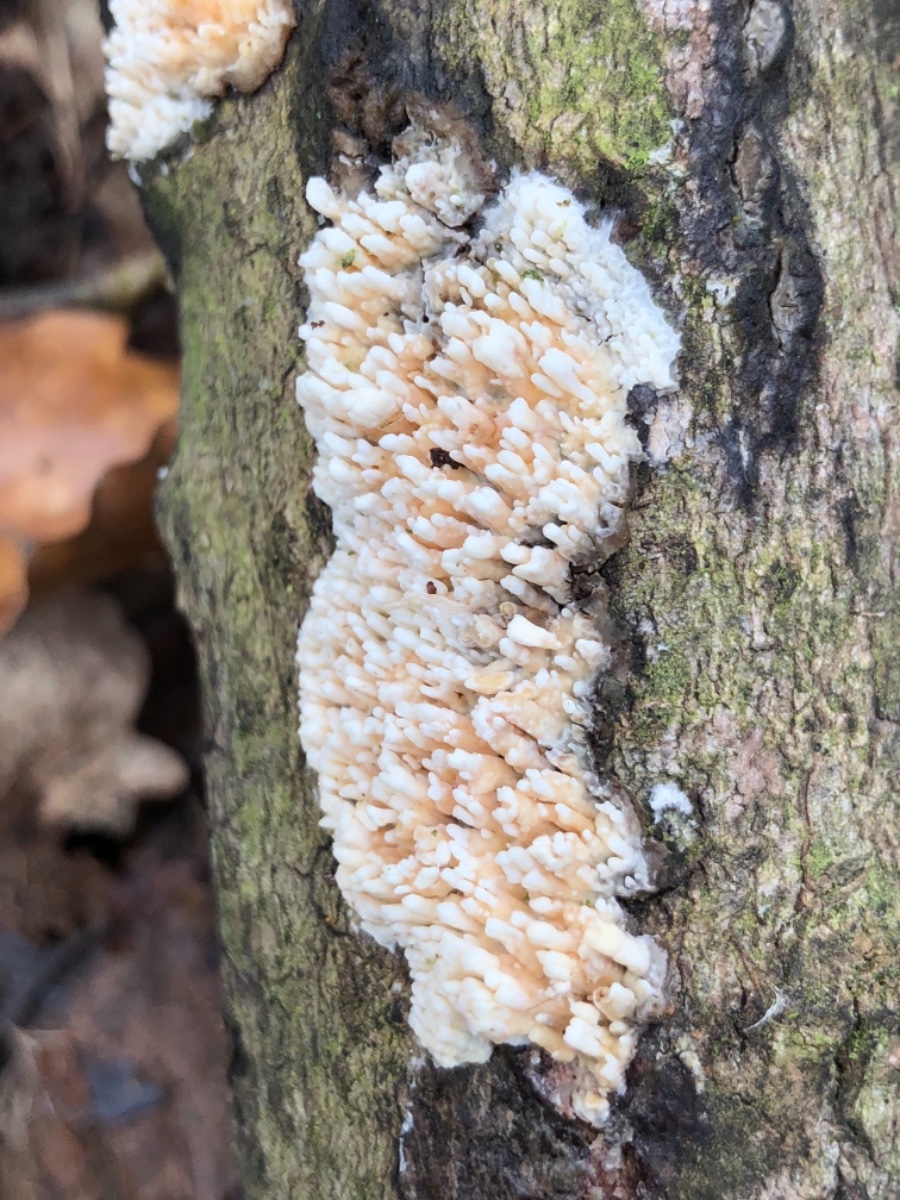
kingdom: Fungi
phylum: Basidiomycota
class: Agaricomycetes
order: Hymenochaetales
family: Schizoporaceae
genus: Xylodon
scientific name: Xylodon radula
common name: grovtandet kalkskind
